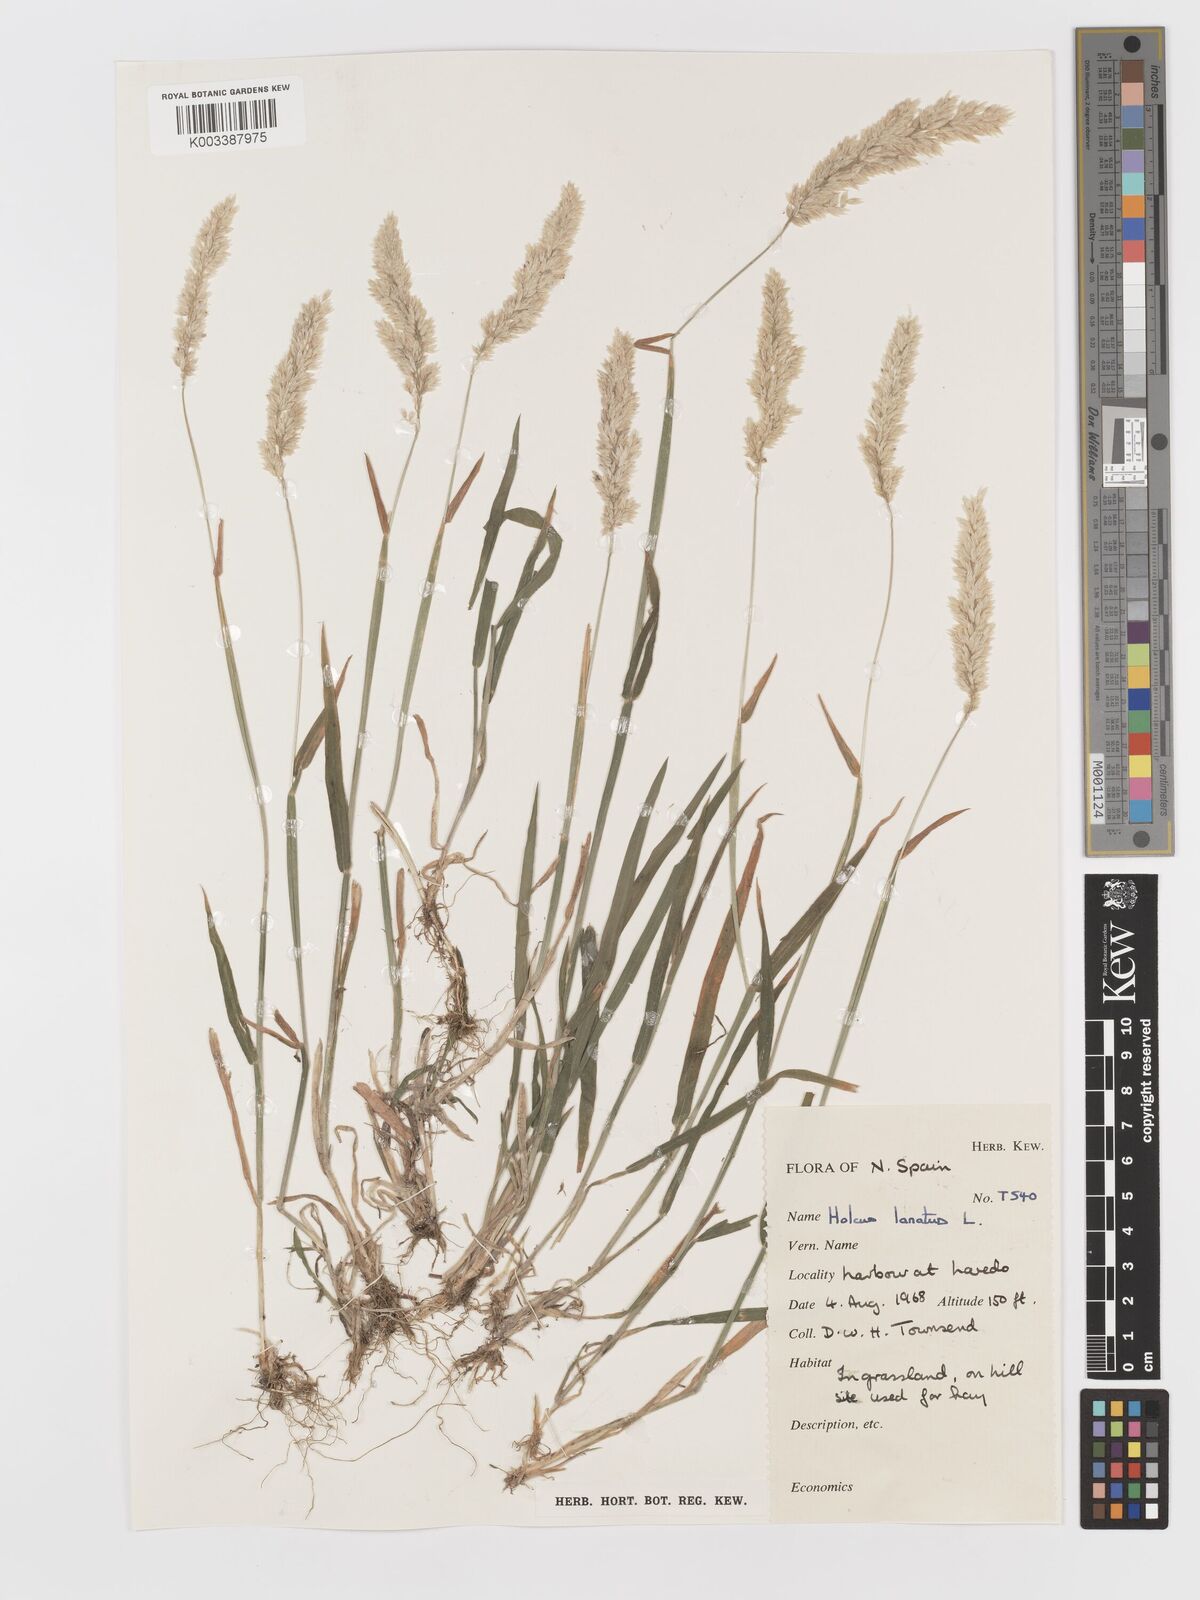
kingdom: Plantae
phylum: Tracheophyta
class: Liliopsida
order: Poales
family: Poaceae
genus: Holcus
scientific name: Holcus lanatus
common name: Yorkshire-fog
